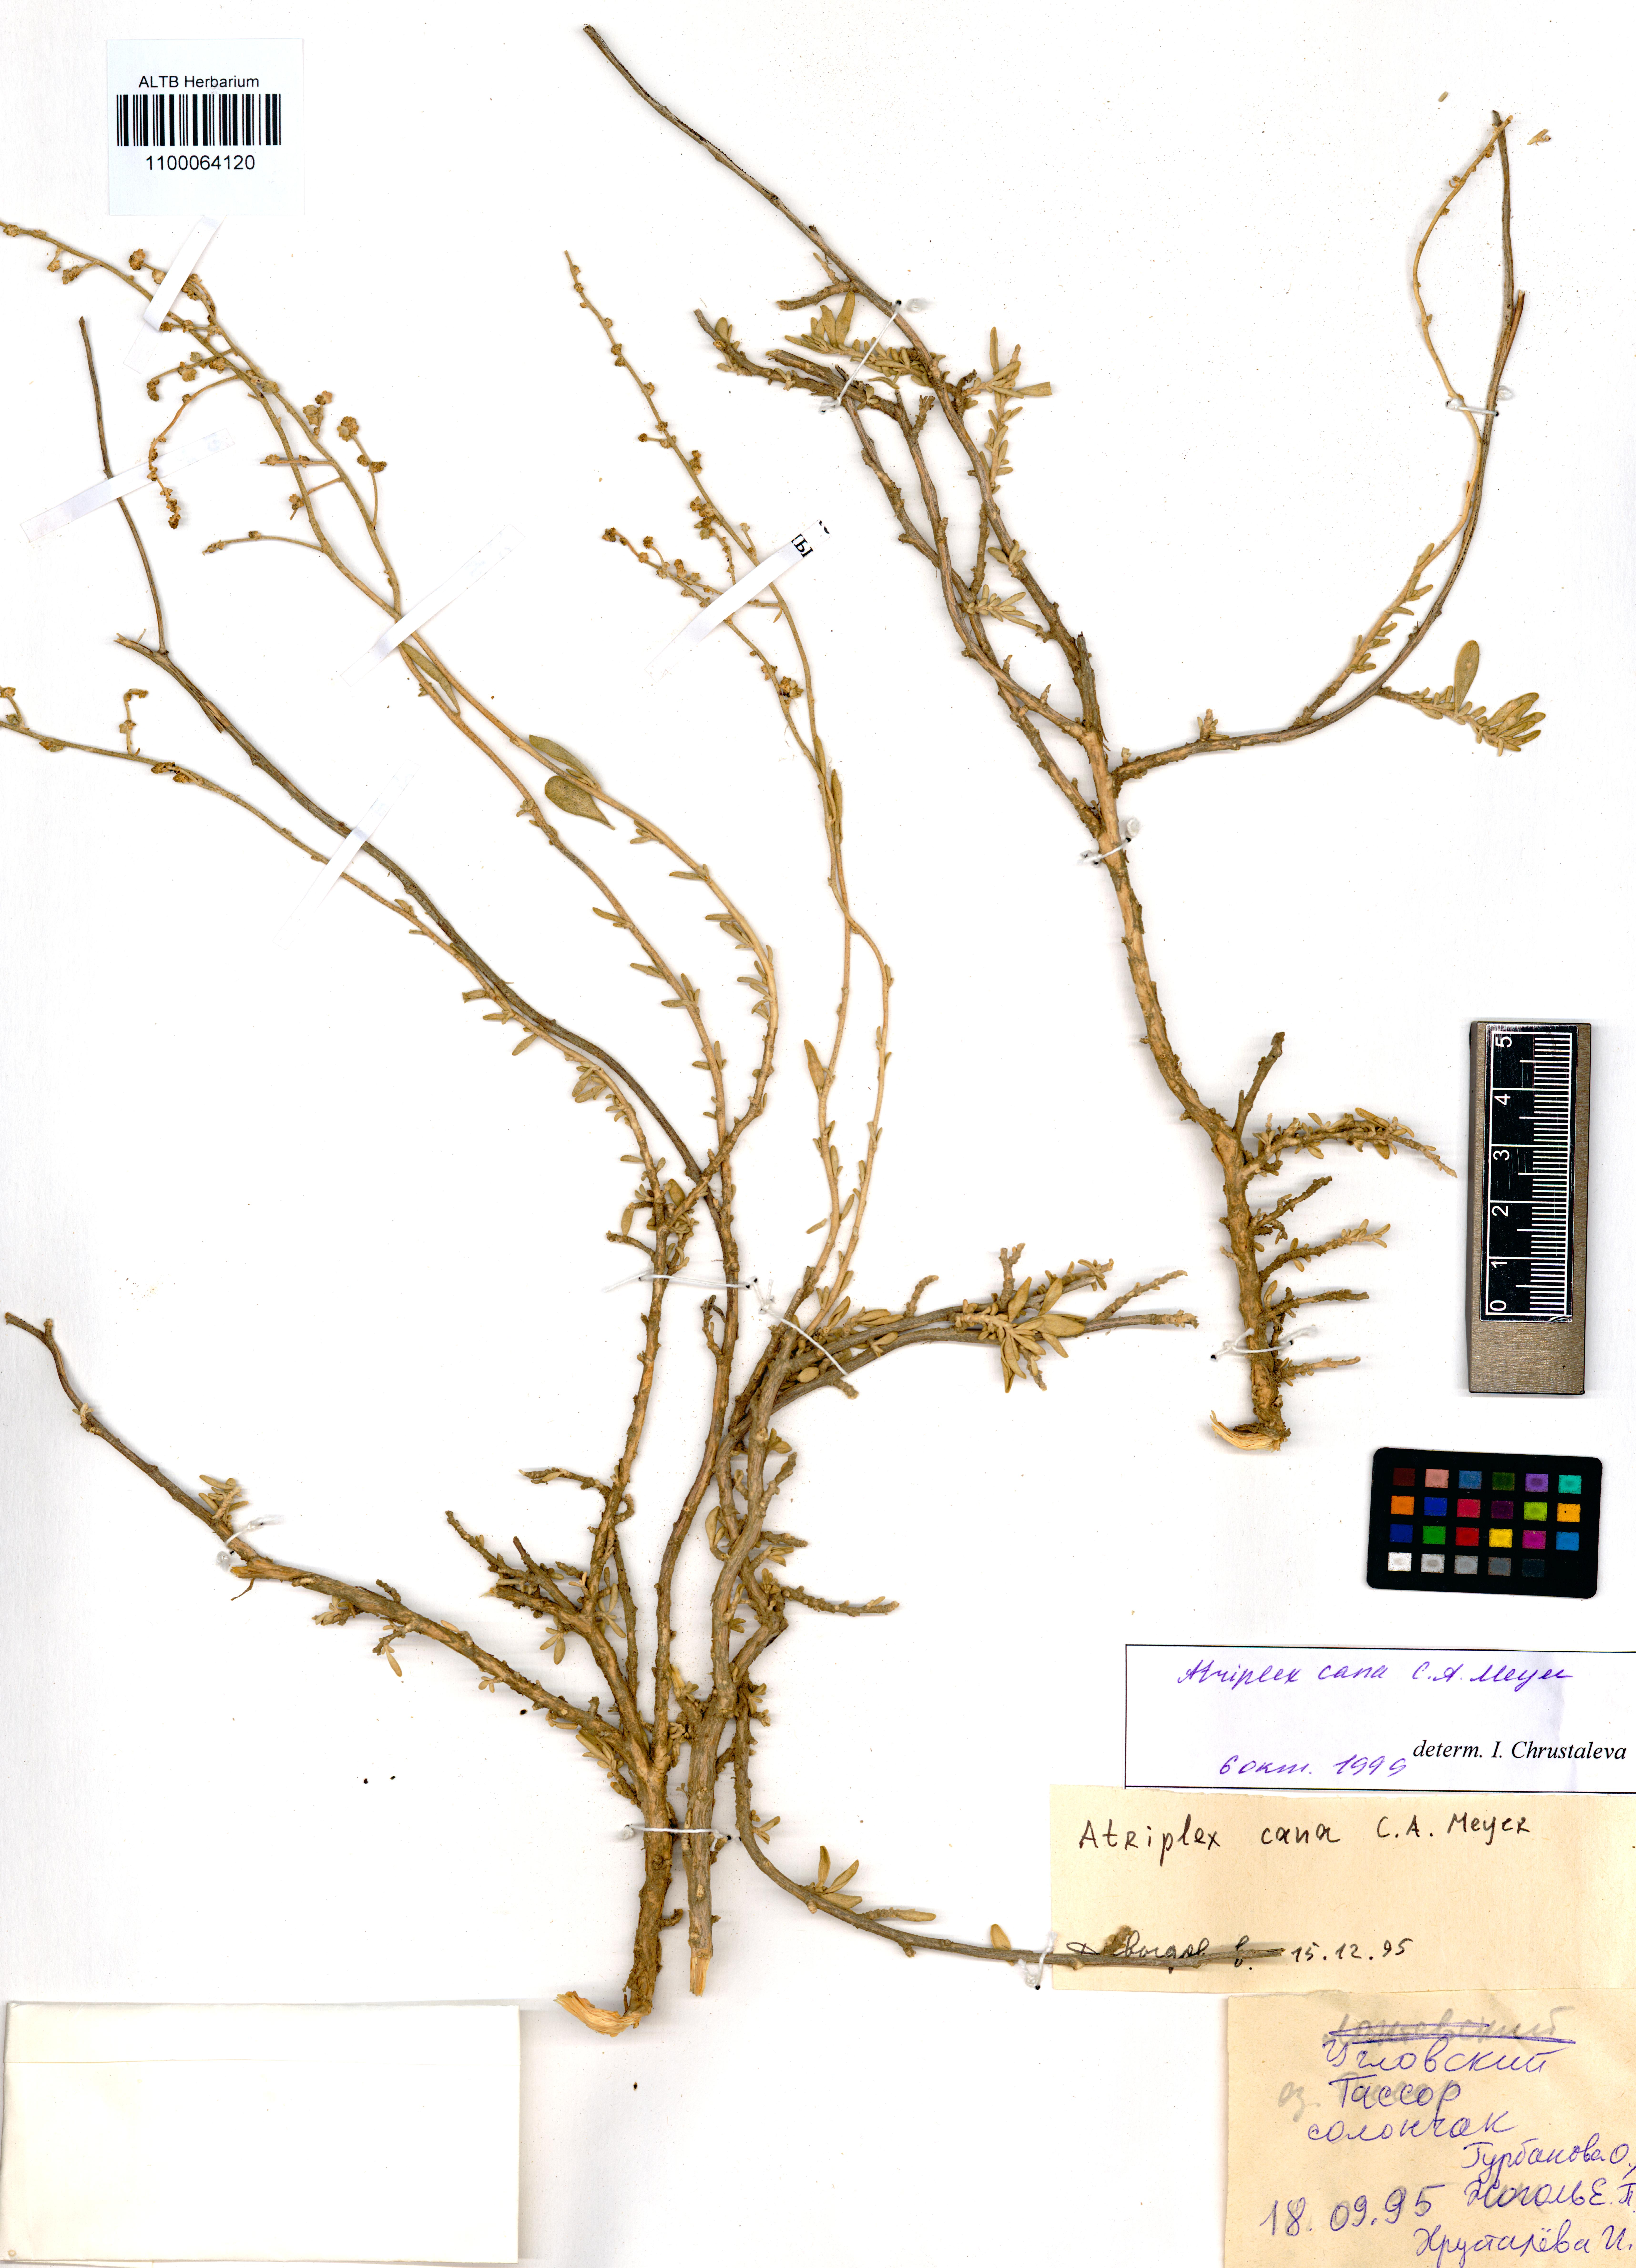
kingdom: Plantae
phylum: Tracheophyta
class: Magnoliopsida
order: Caryophyllales
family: Amaranthaceae
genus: Atriplex
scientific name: Atriplex cana
